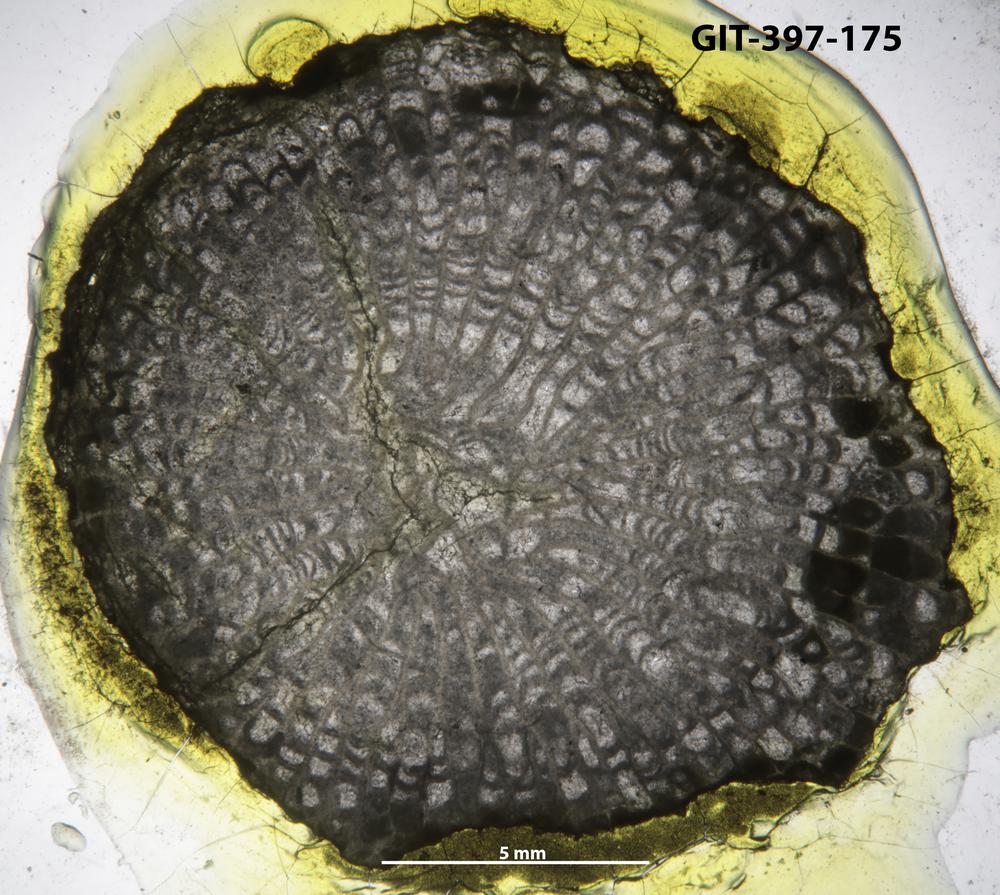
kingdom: Animalia
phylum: Cnidaria
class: Anthozoa
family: Paliphyllidae
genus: Paliphyllum
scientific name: Paliphyllum
